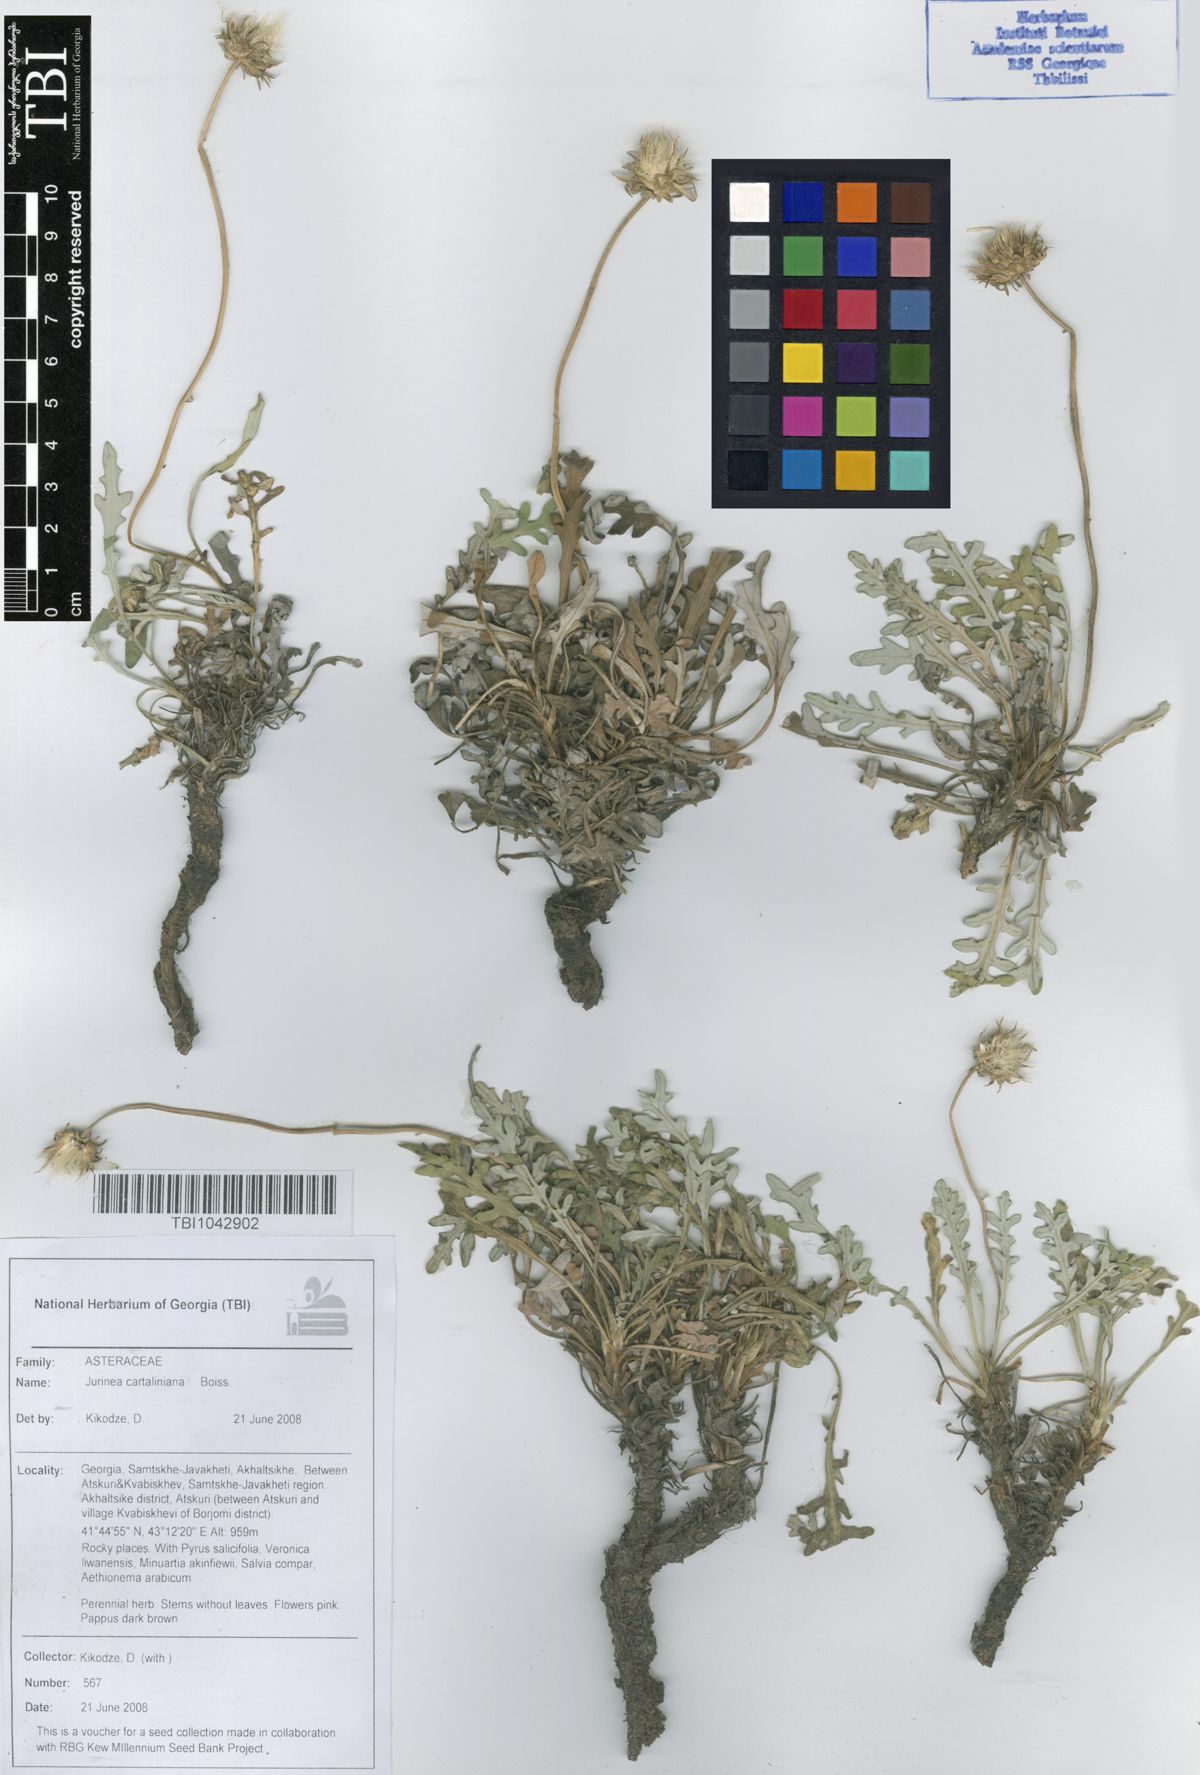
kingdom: Plantae
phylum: Tracheophyta
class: Magnoliopsida
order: Asterales
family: Asteraceae
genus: Jurinea
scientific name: Jurinea cartaliniana
